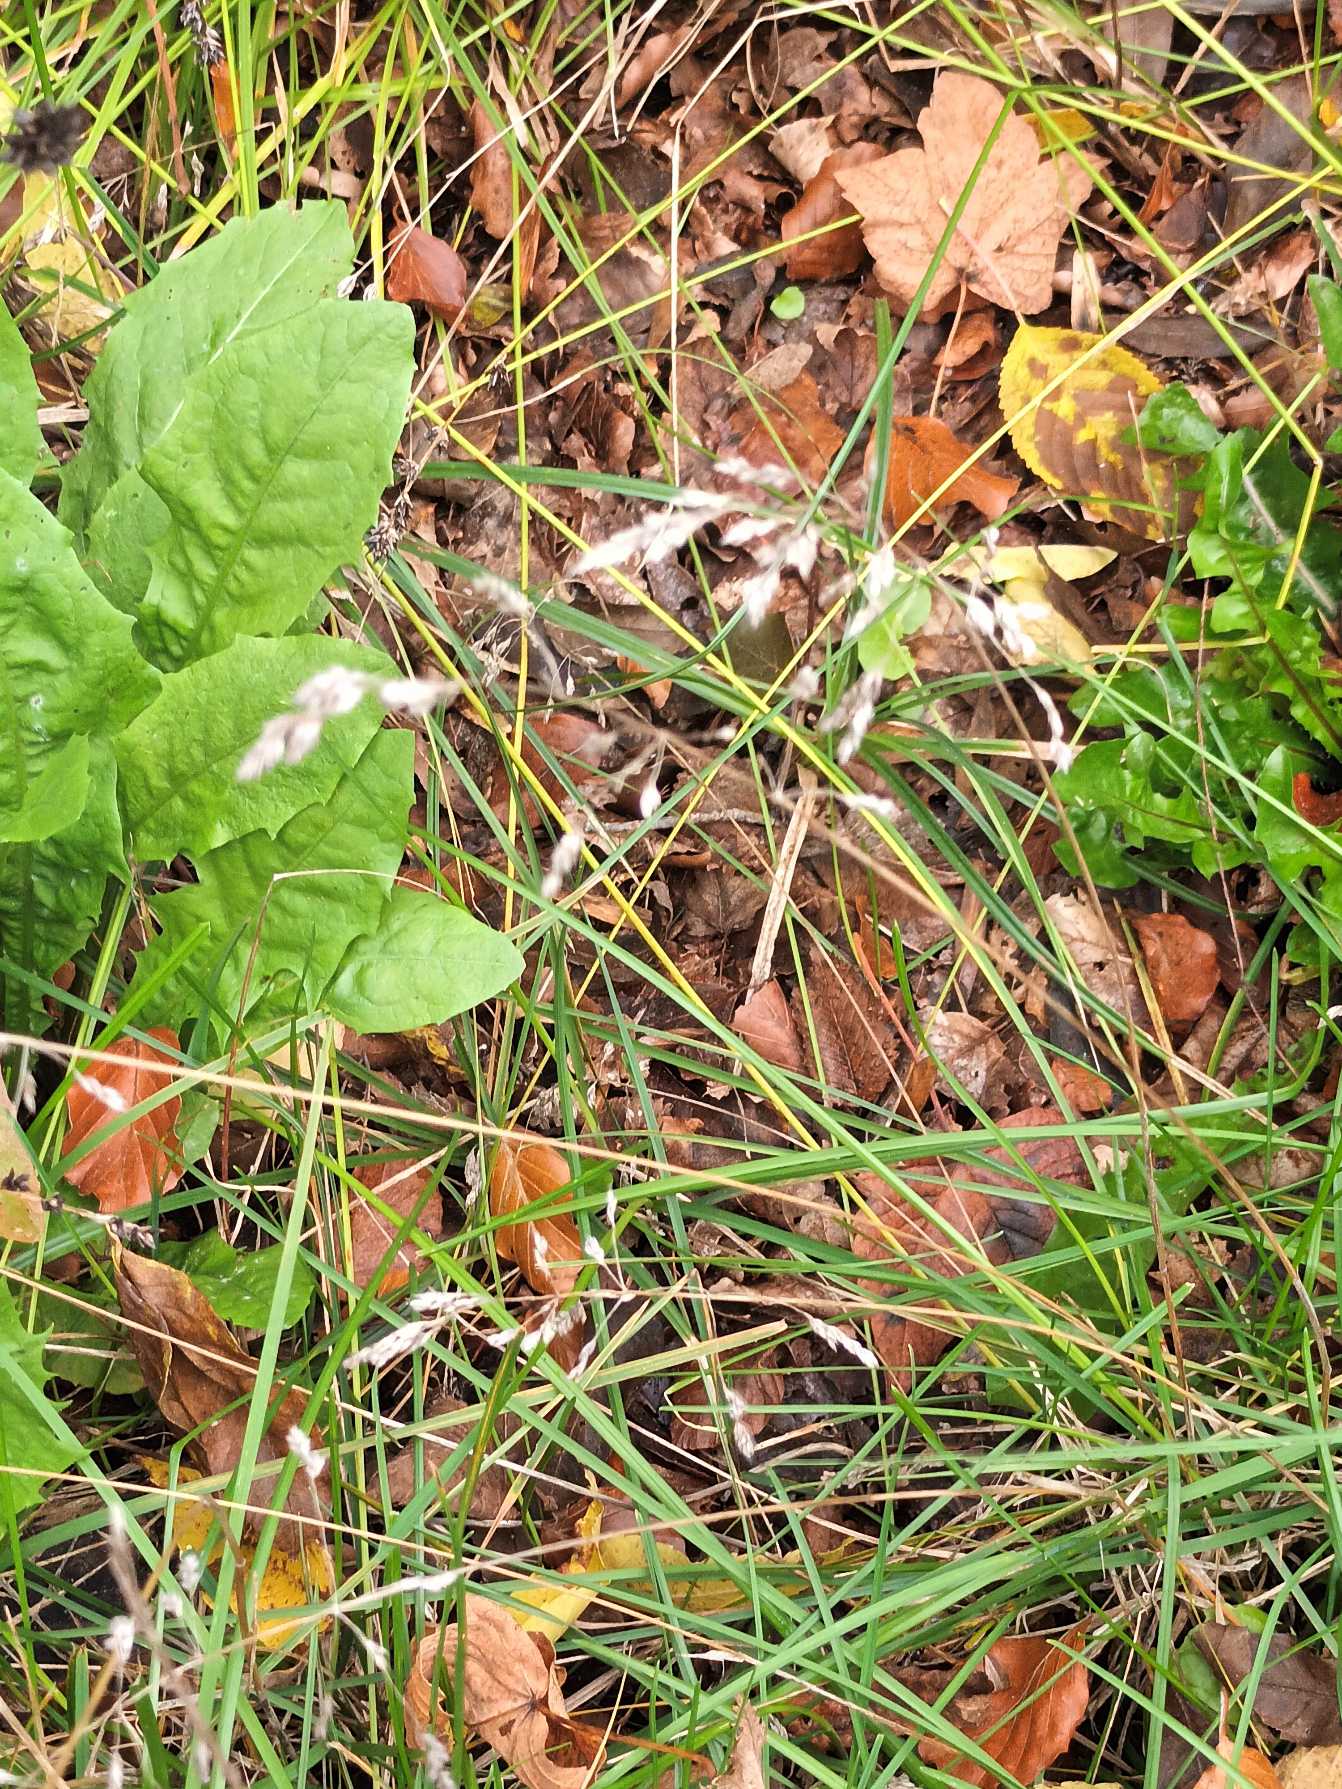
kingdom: Plantae
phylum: Tracheophyta
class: Liliopsida
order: Poales
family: Poaceae
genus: Poa
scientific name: Poa pratensis
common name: Eng-rapgræs
